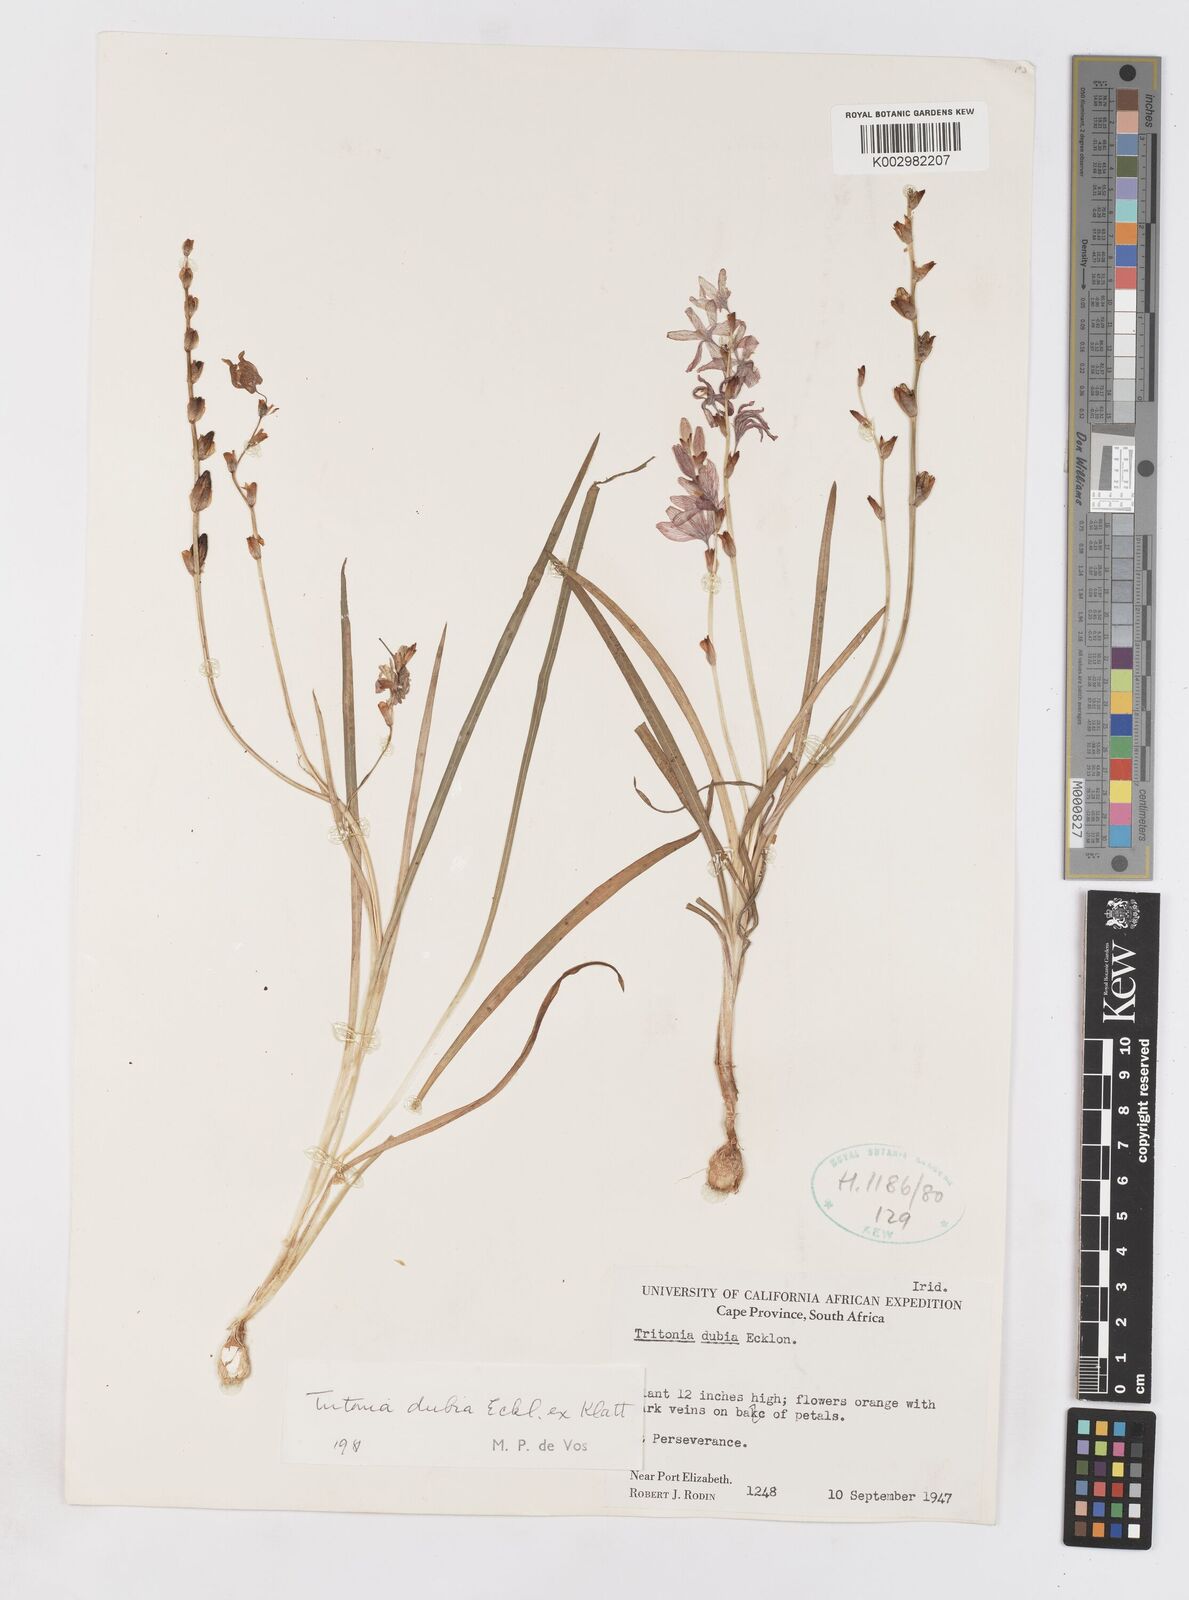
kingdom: Plantae
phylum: Tracheophyta
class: Liliopsida
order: Asparagales
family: Iridaceae
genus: Tritonia
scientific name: Tritonia dubia
